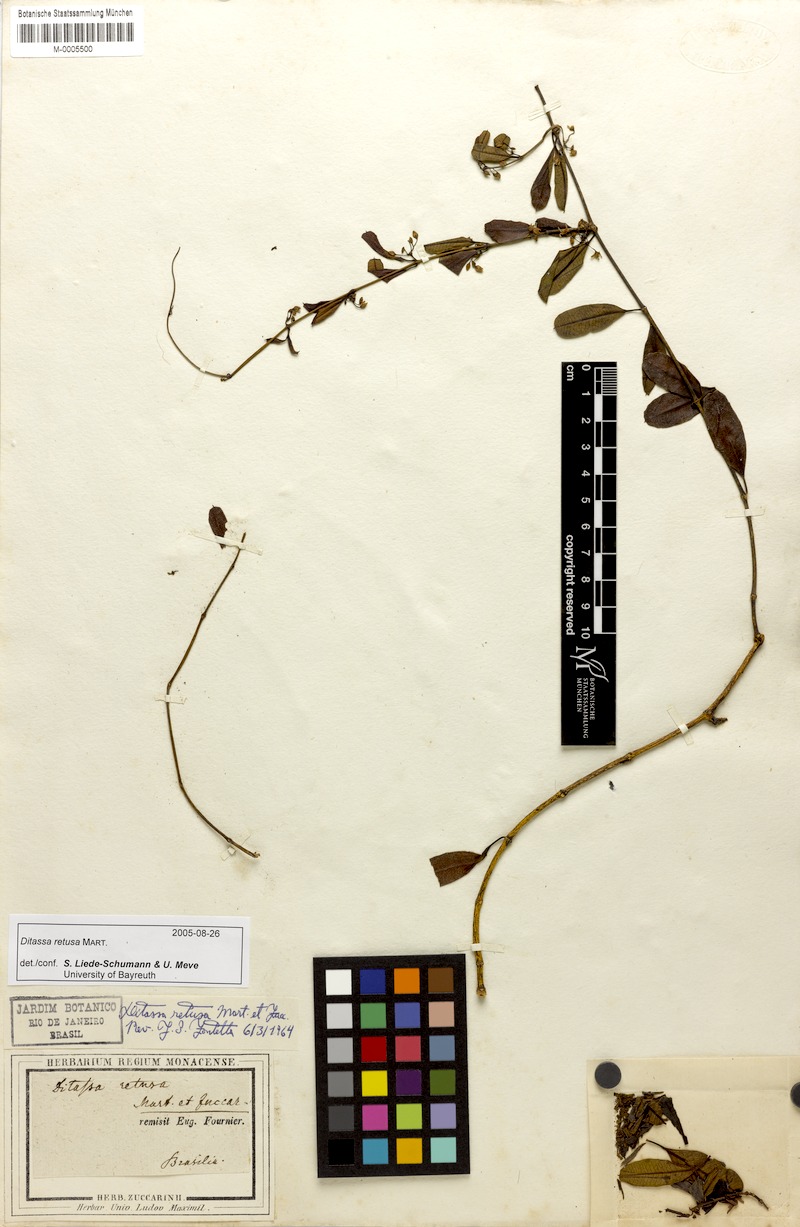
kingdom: Plantae
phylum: Tracheophyta
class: Magnoliopsida
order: Gentianales
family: Apocynaceae
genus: Ditassa
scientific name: Ditassa retusa
